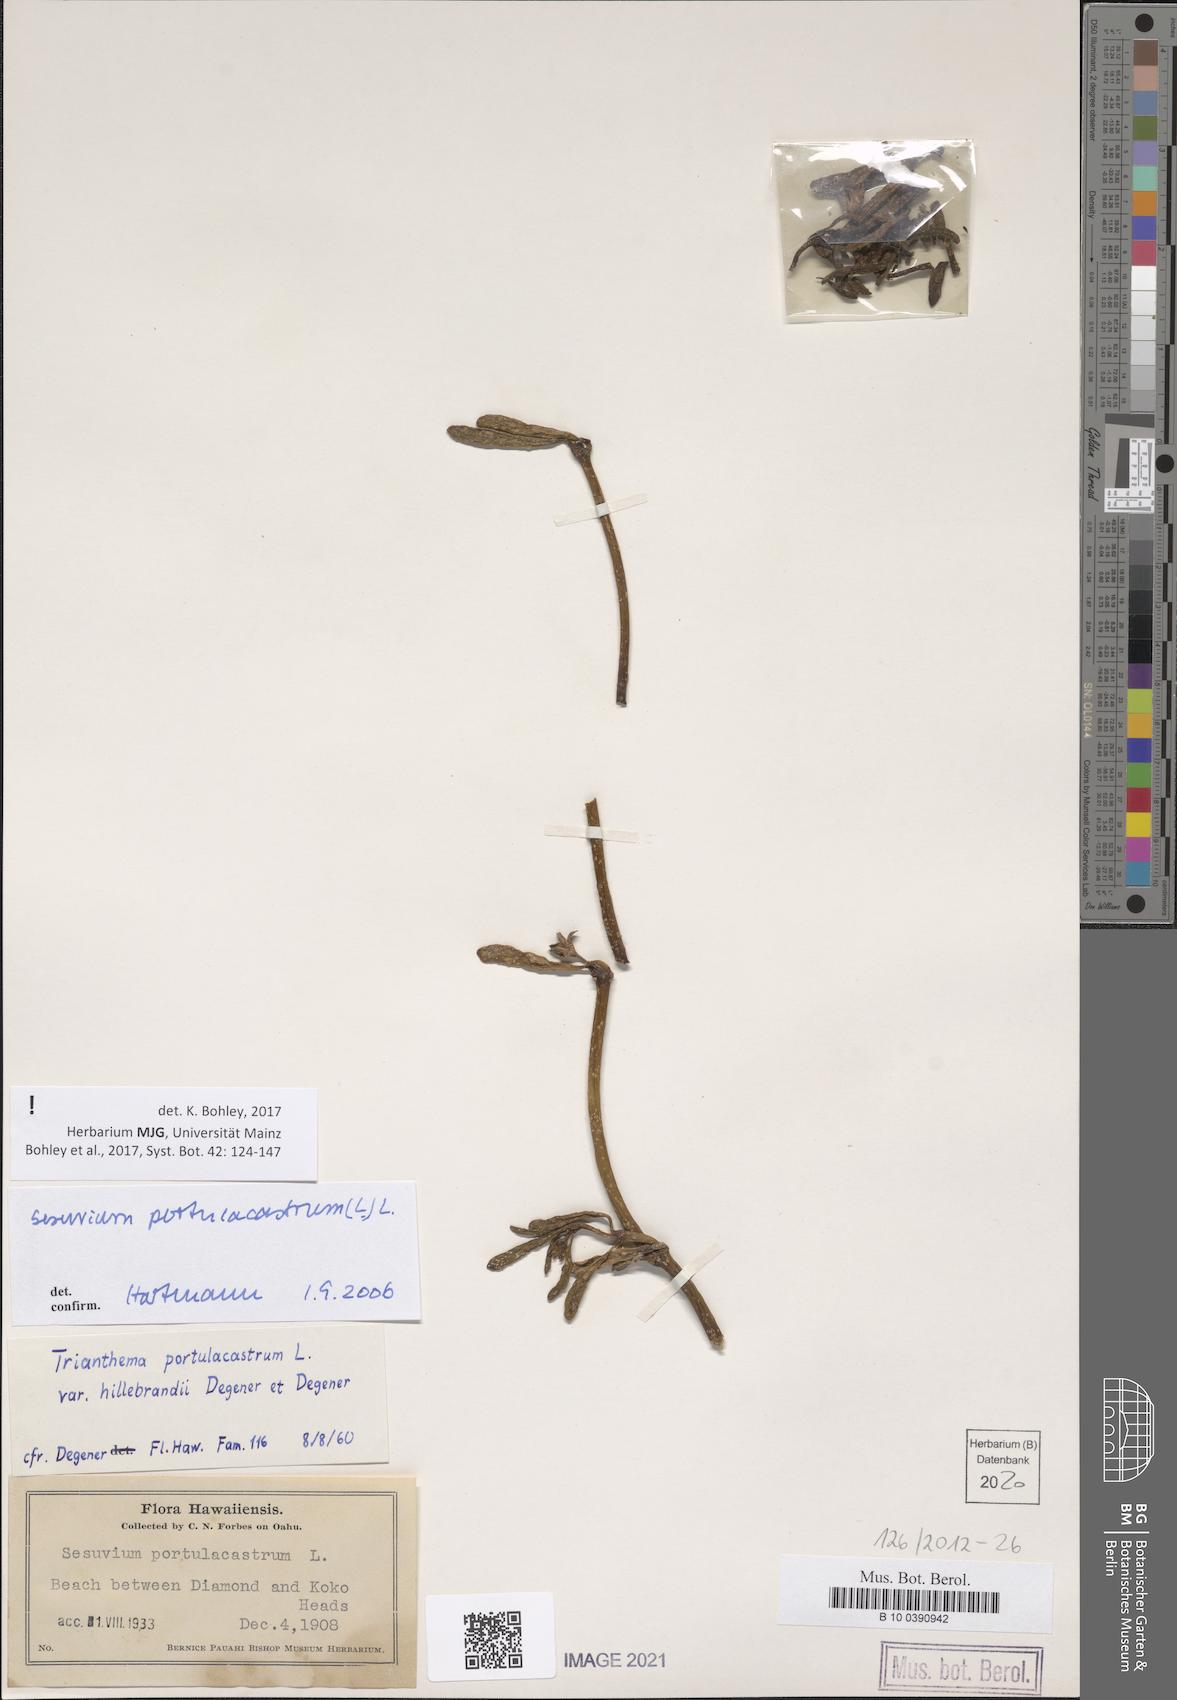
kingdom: Plantae
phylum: Tracheophyta
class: Magnoliopsida
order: Caryophyllales
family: Aizoaceae
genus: Sesuvium
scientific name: Sesuvium portulacastrum
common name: Sea-purslane
